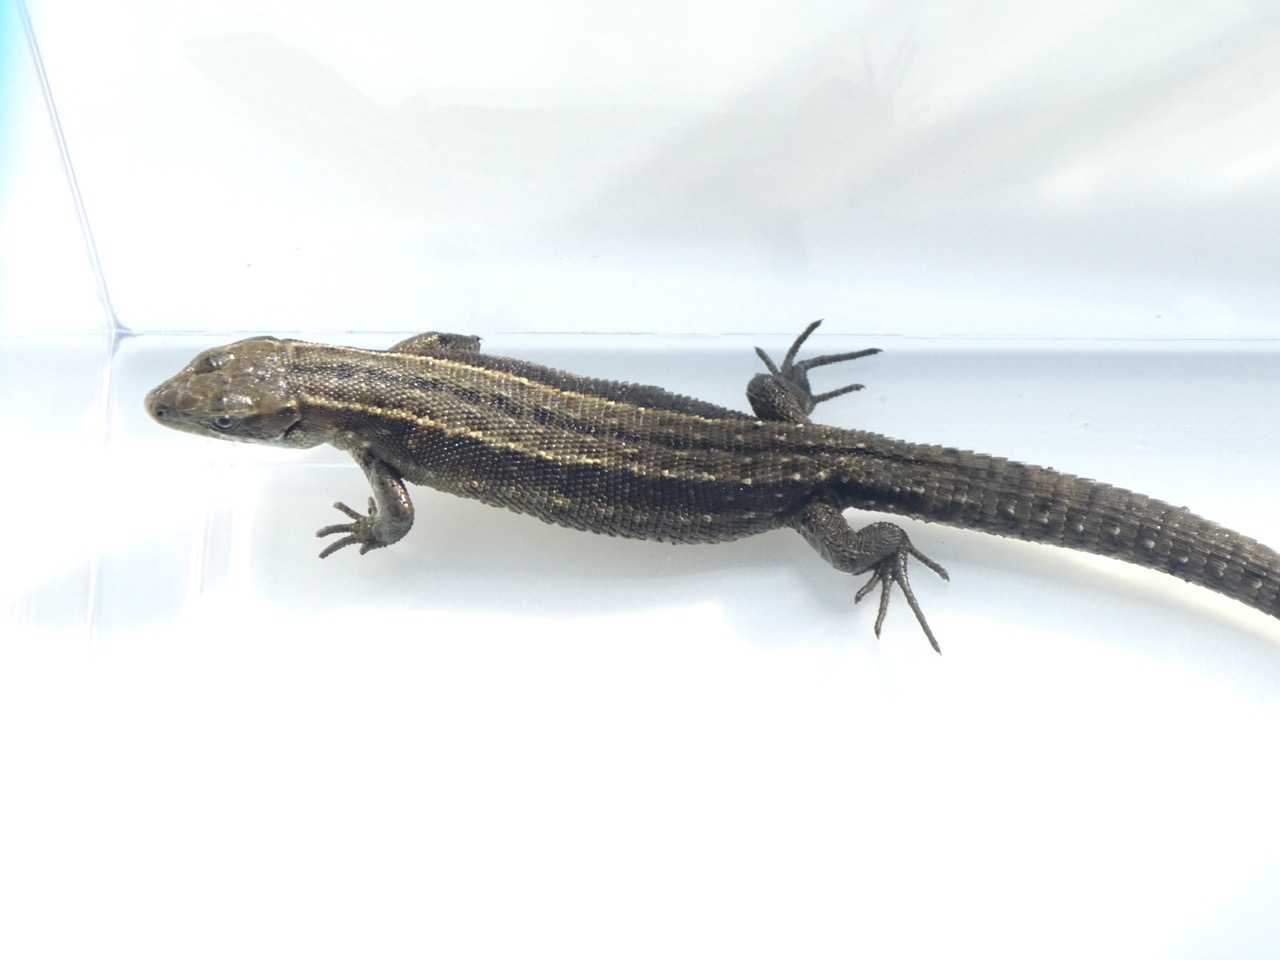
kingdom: Animalia
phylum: Chordata
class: Squamata
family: Lacertidae
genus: Zootoca
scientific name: Zootoca vivipara
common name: Skovfirben
